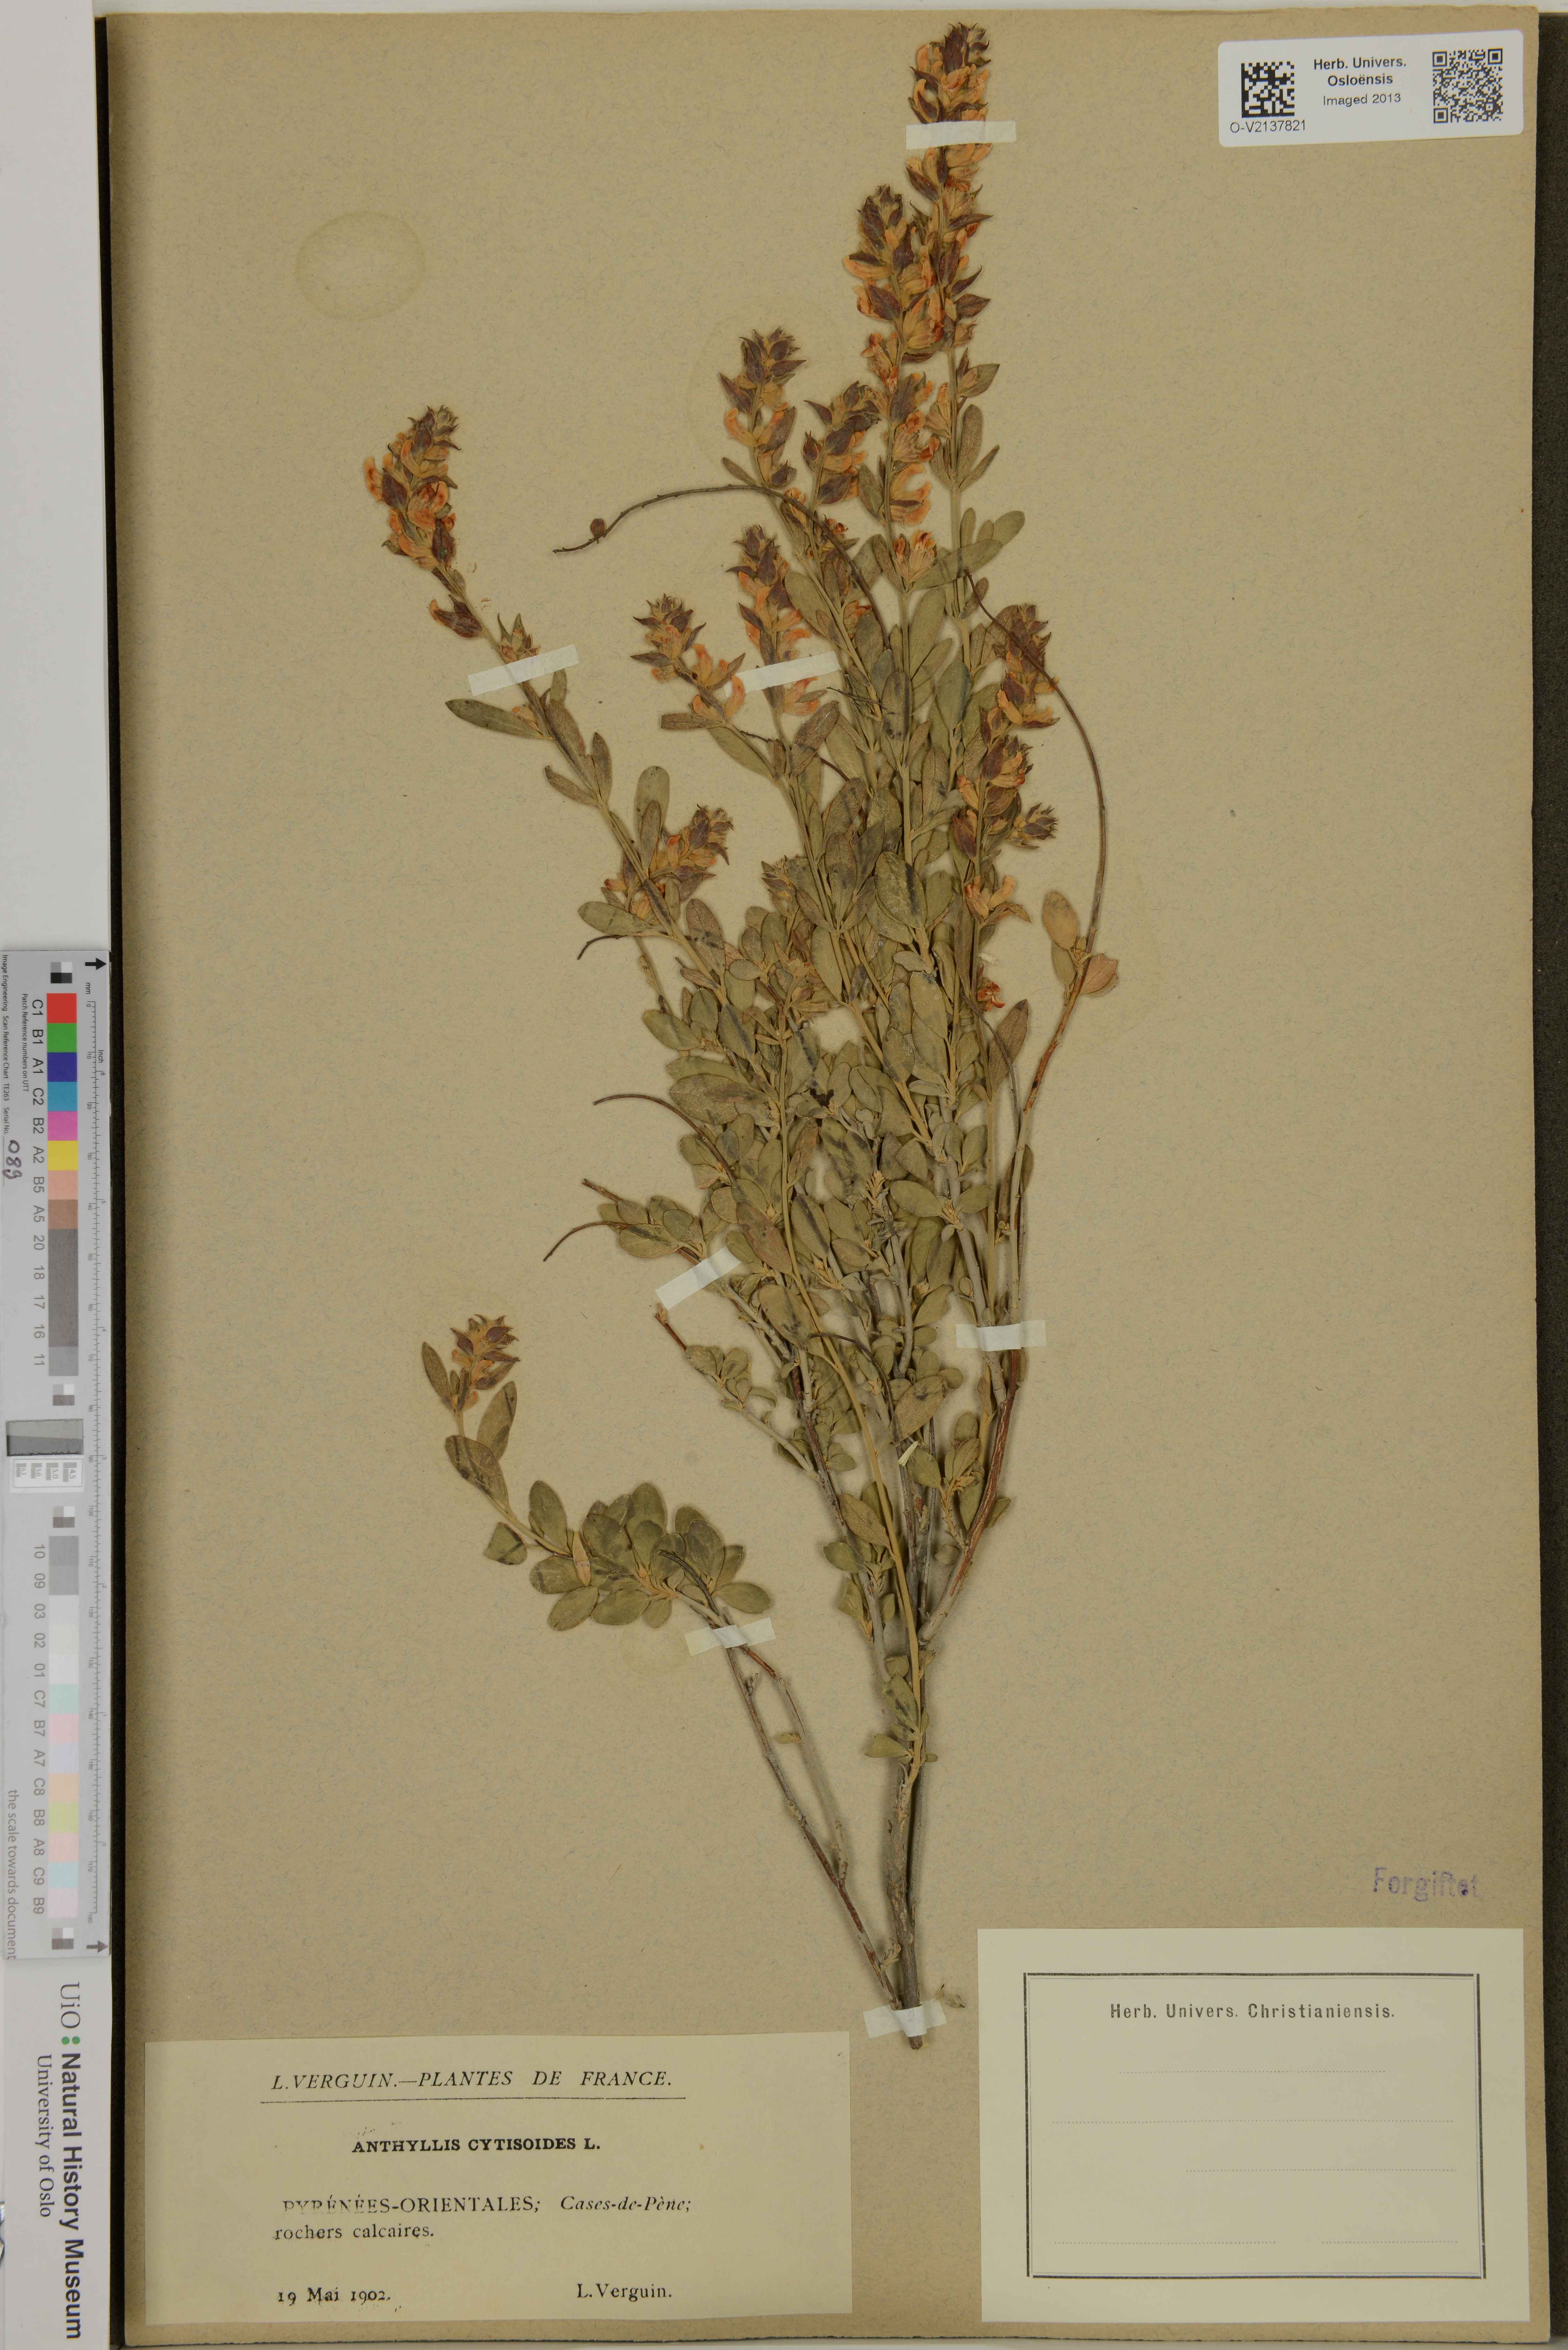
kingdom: Plantae
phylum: Tracheophyta
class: Magnoliopsida
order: Fabales
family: Fabaceae
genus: Anthyllis
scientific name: Anthyllis cytisoides
